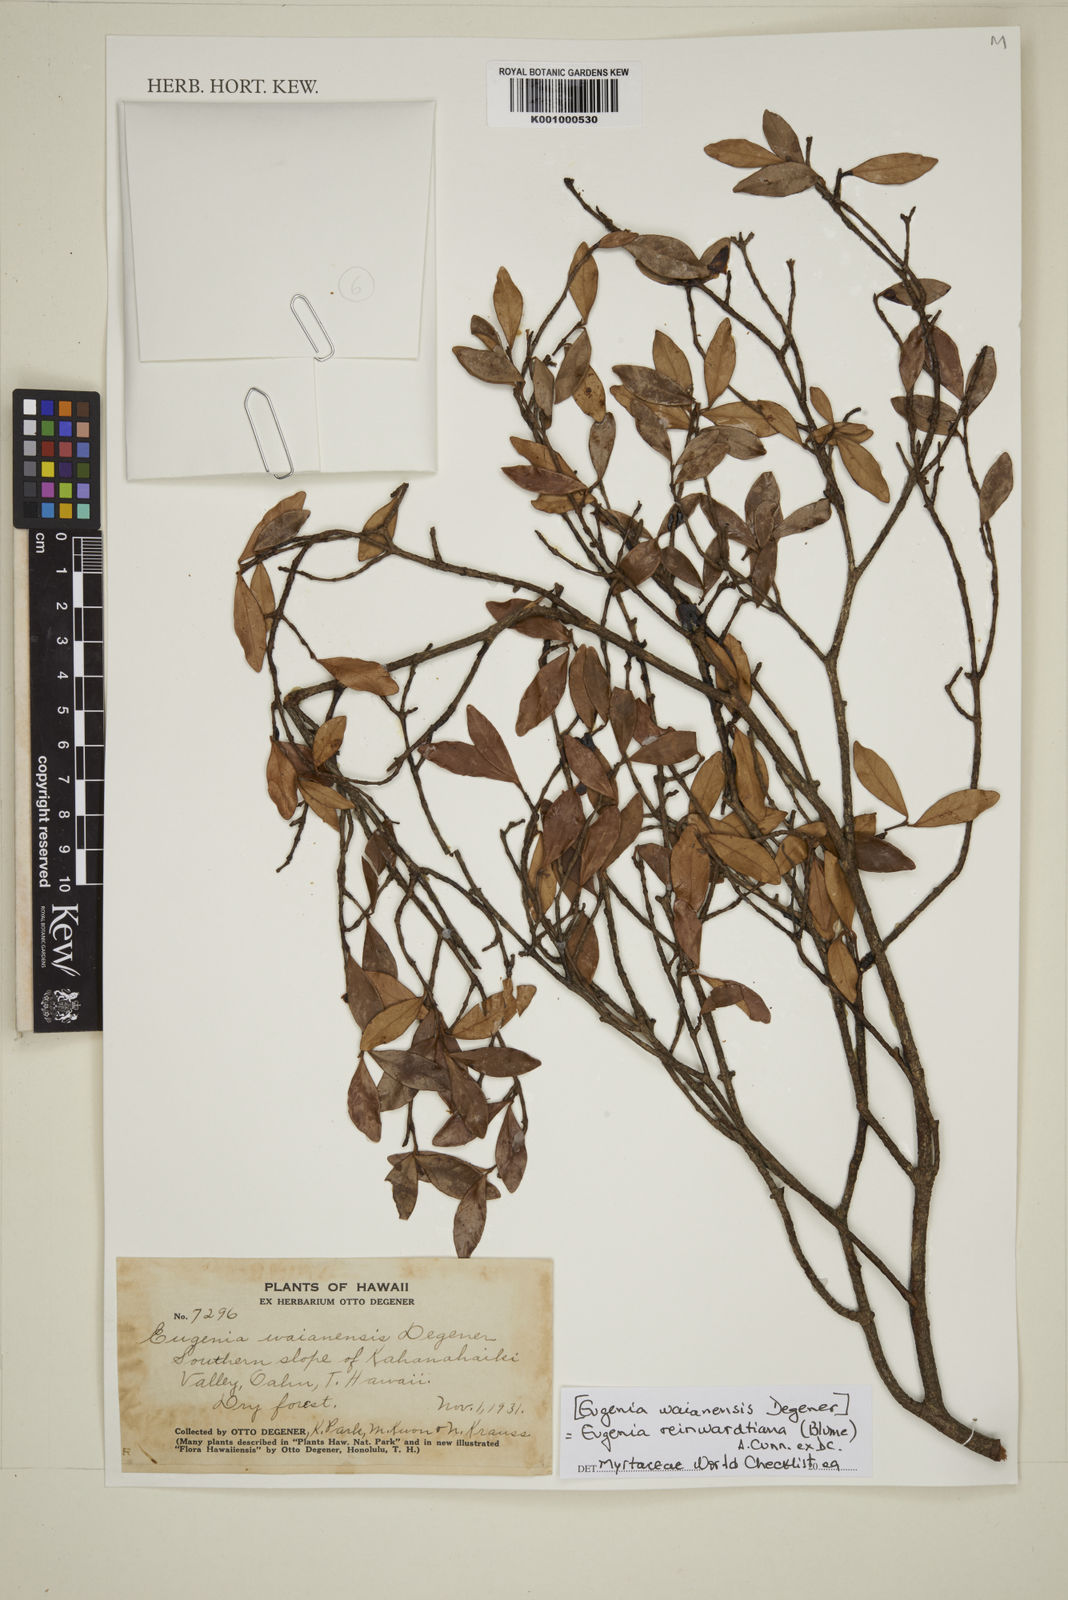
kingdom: Plantae
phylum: Tracheophyta
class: Magnoliopsida
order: Myrtales
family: Myrtaceae
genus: Eugenia
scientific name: Eugenia reinwardtiana
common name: Cedar bay-cherry
